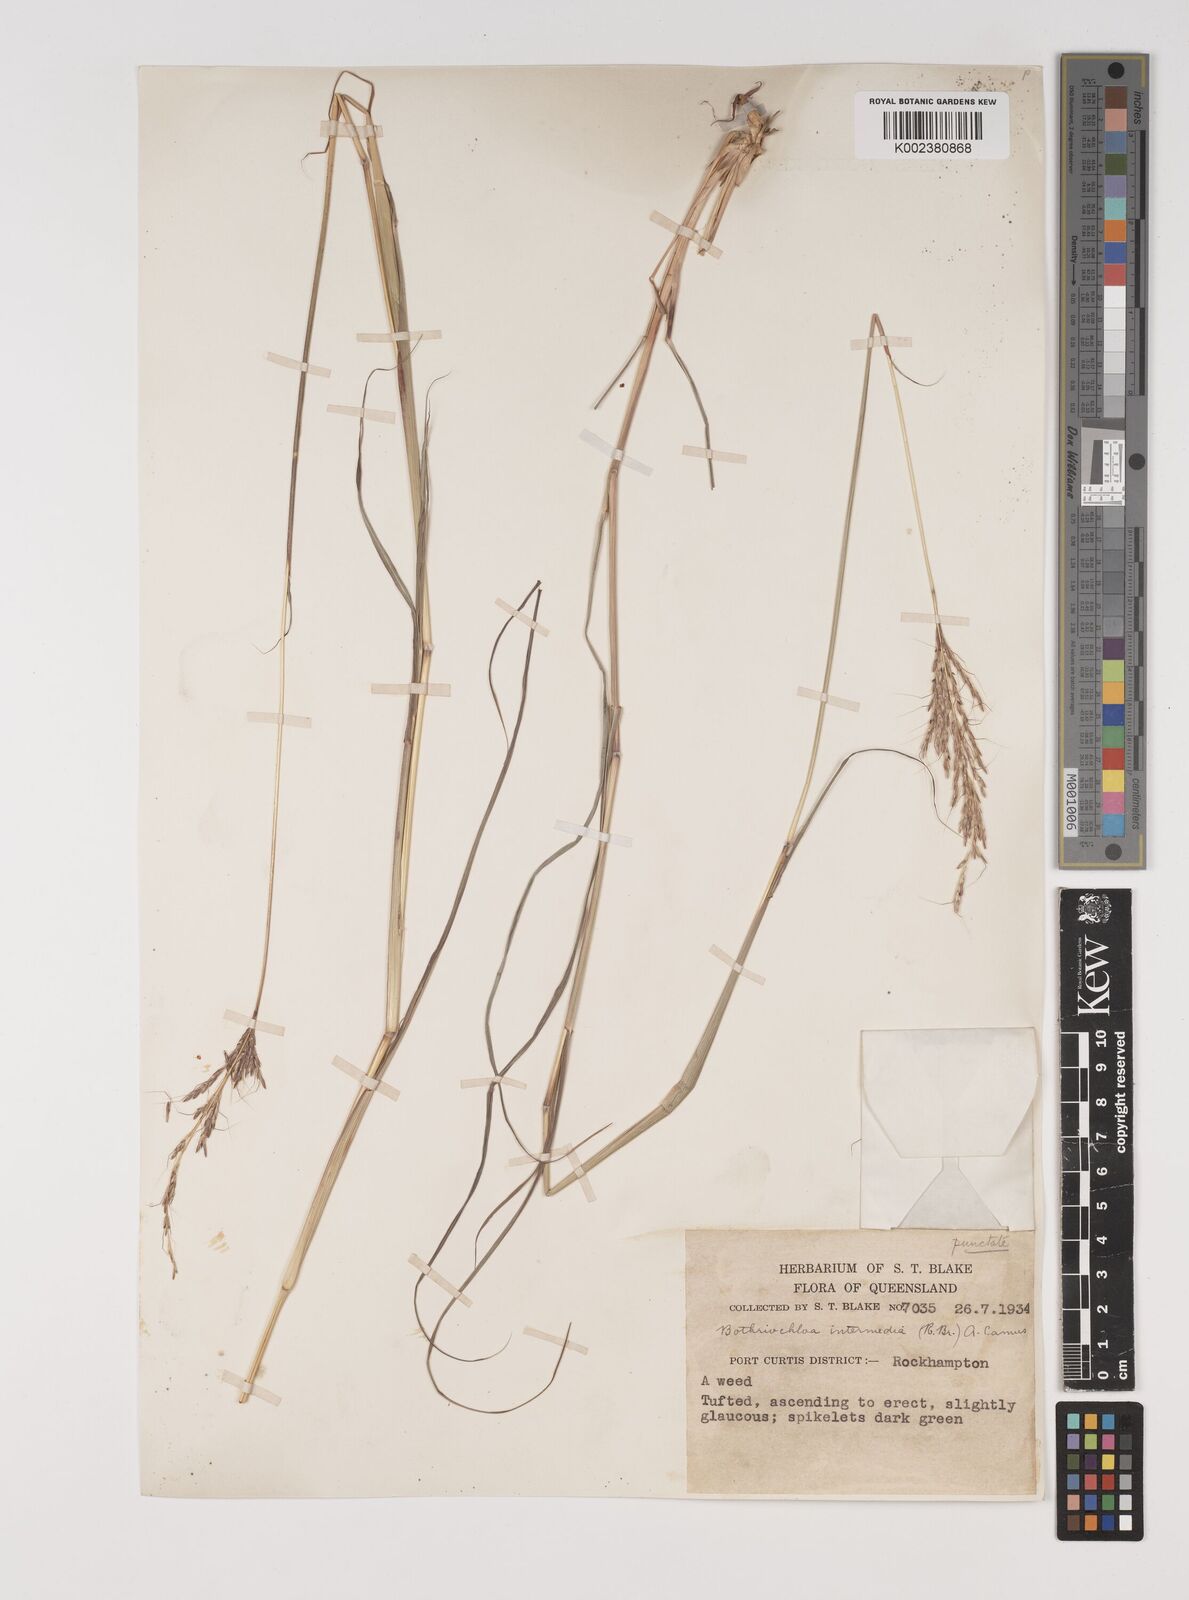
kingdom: Plantae
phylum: Tracheophyta
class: Liliopsida
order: Poales
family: Poaceae
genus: Bothriochloa
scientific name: Bothriochloa bladhii
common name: Caucasian bluestem
